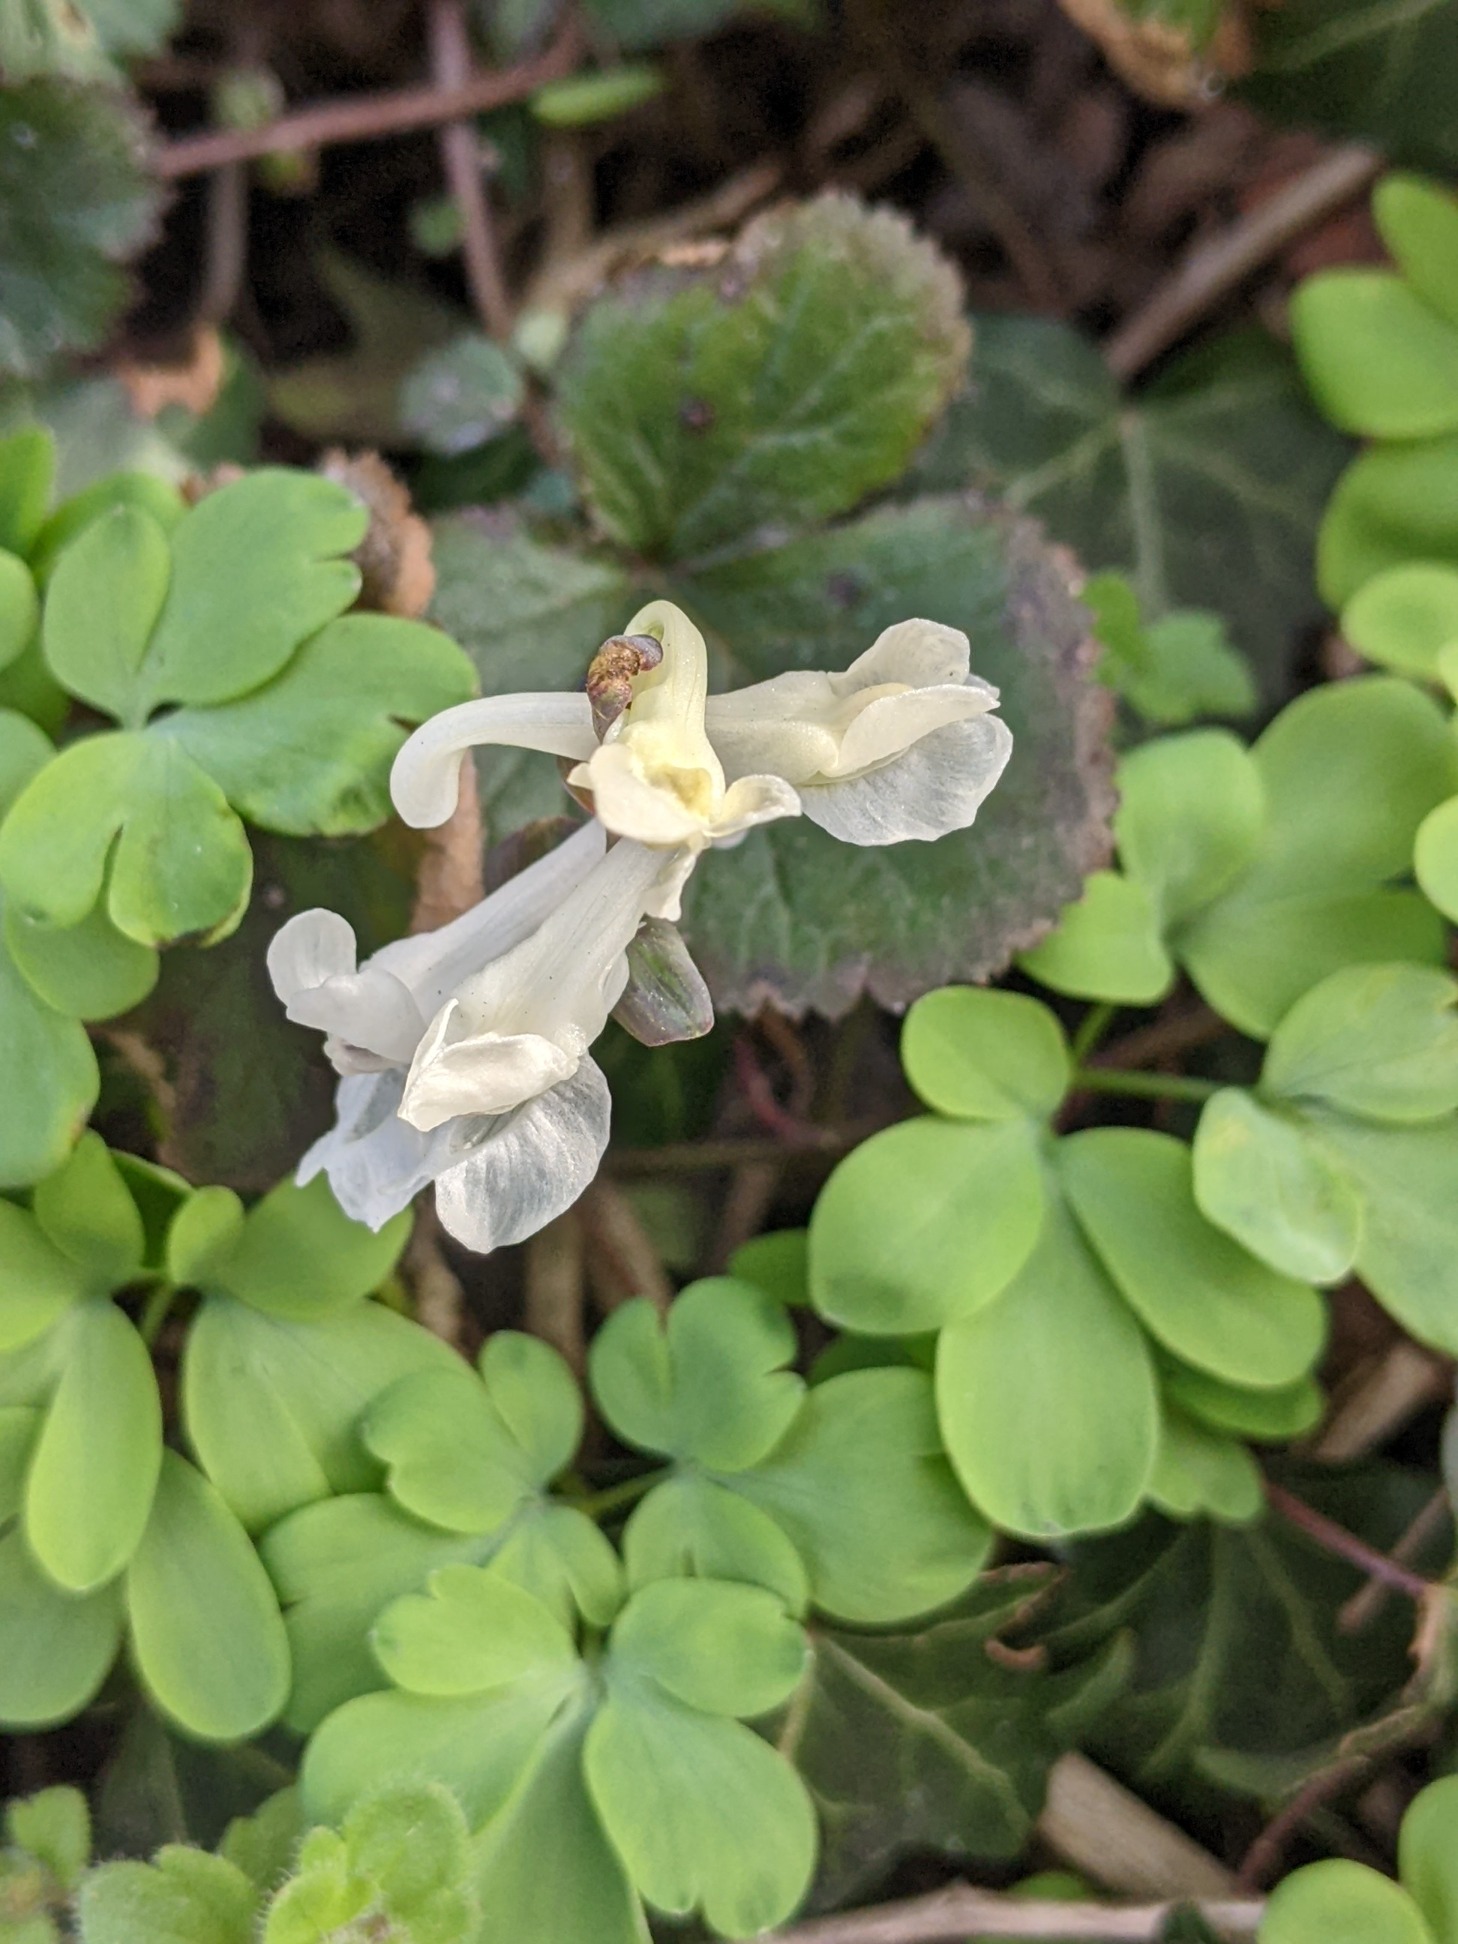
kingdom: Plantae
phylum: Tracheophyta
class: Magnoliopsida
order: Ranunculales
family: Papaveraceae
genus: Corydalis
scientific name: Corydalis cava
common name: Hulrodet lærkespore
